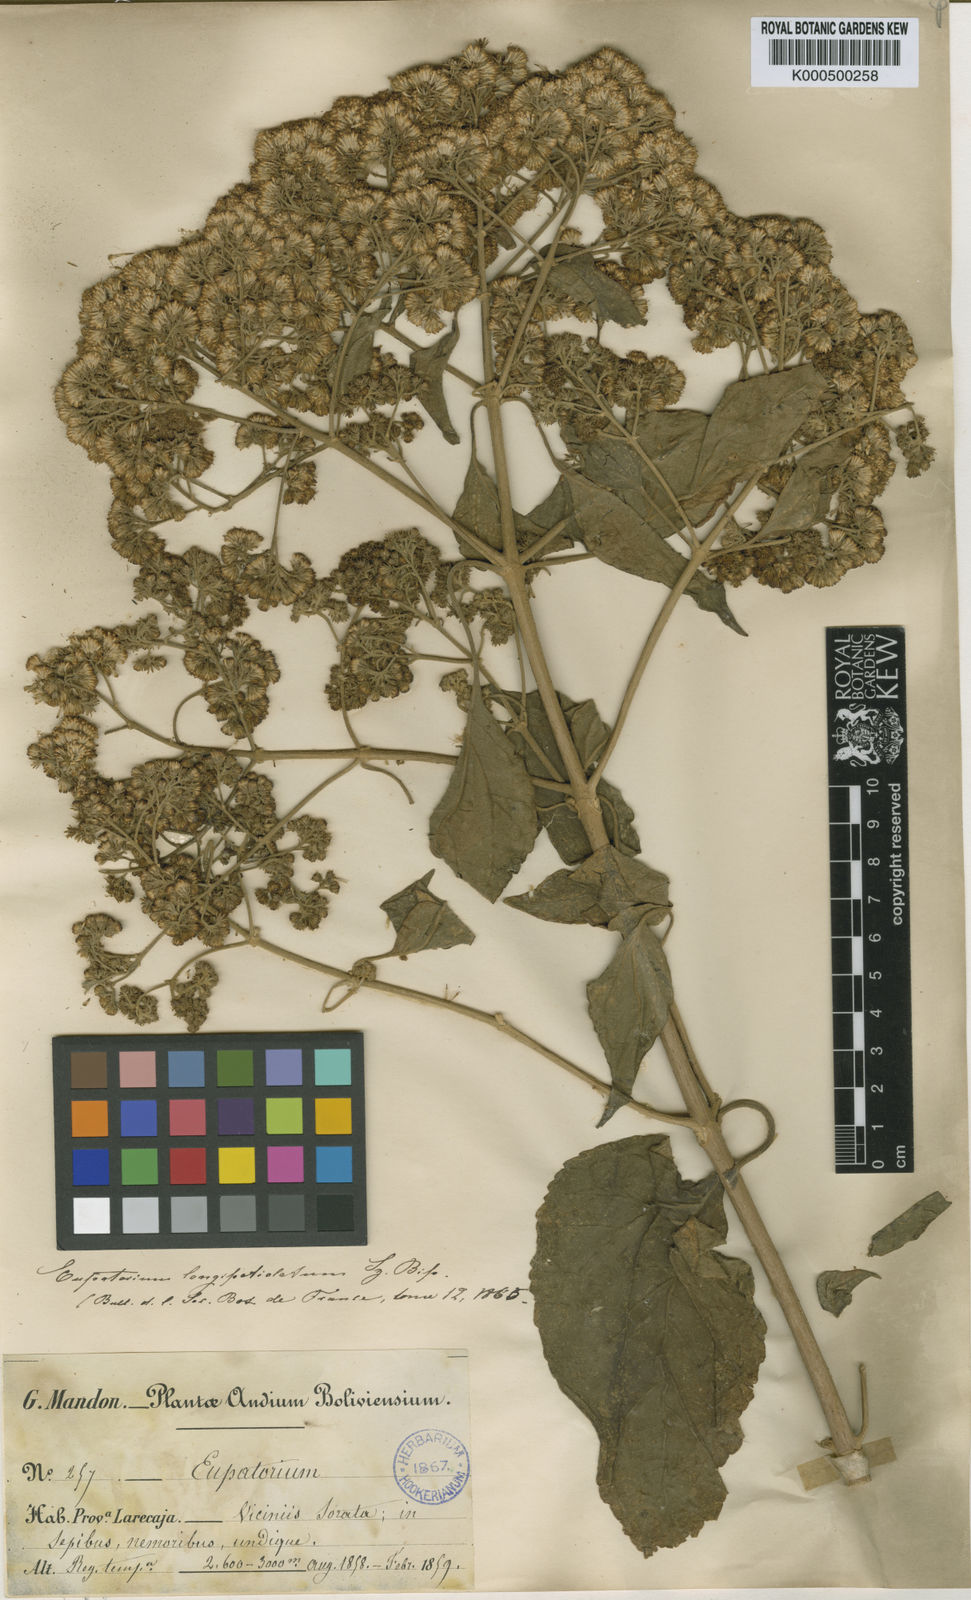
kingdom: Plantae
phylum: Tracheophyta
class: Magnoliopsida
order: Asterales
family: Asteraceae
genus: Kaunia
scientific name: Kaunia longipetiolata
